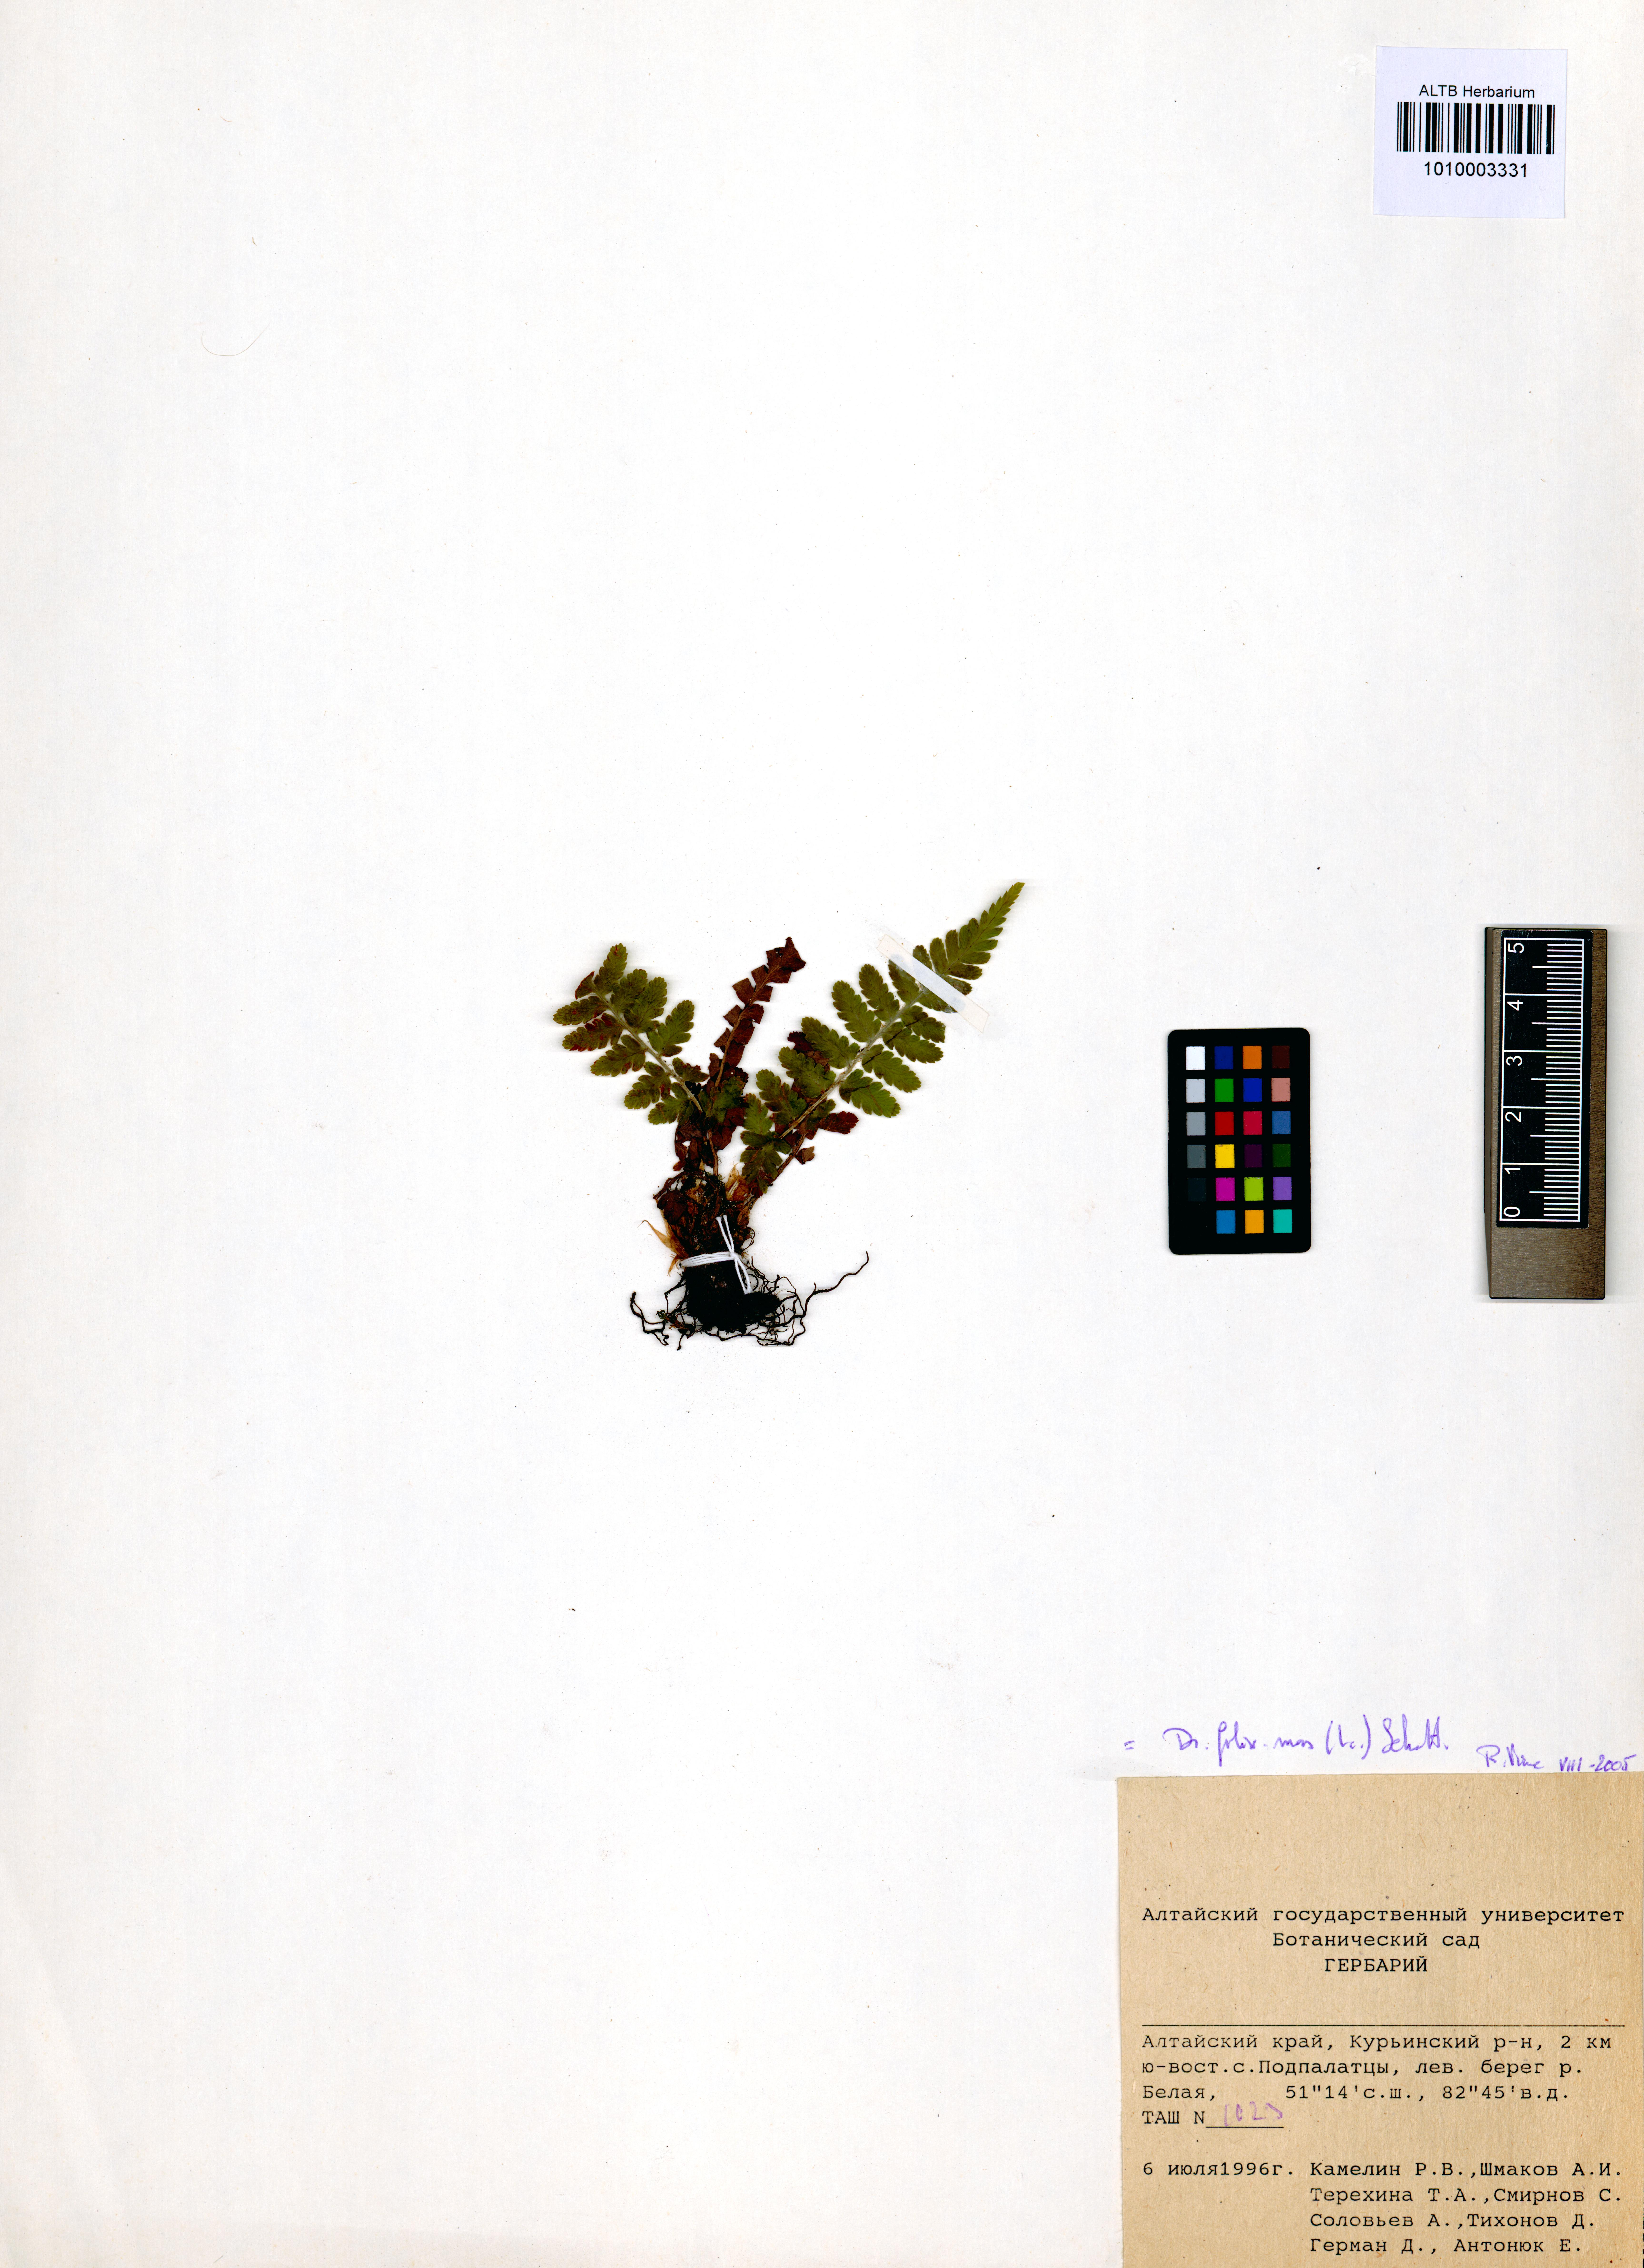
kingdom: Plantae
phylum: Tracheophyta
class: Polypodiopsida
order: Polypodiales
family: Dryopteridaceae
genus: Dryopteris
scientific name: Dryopteris filix-mas
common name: Male fern
